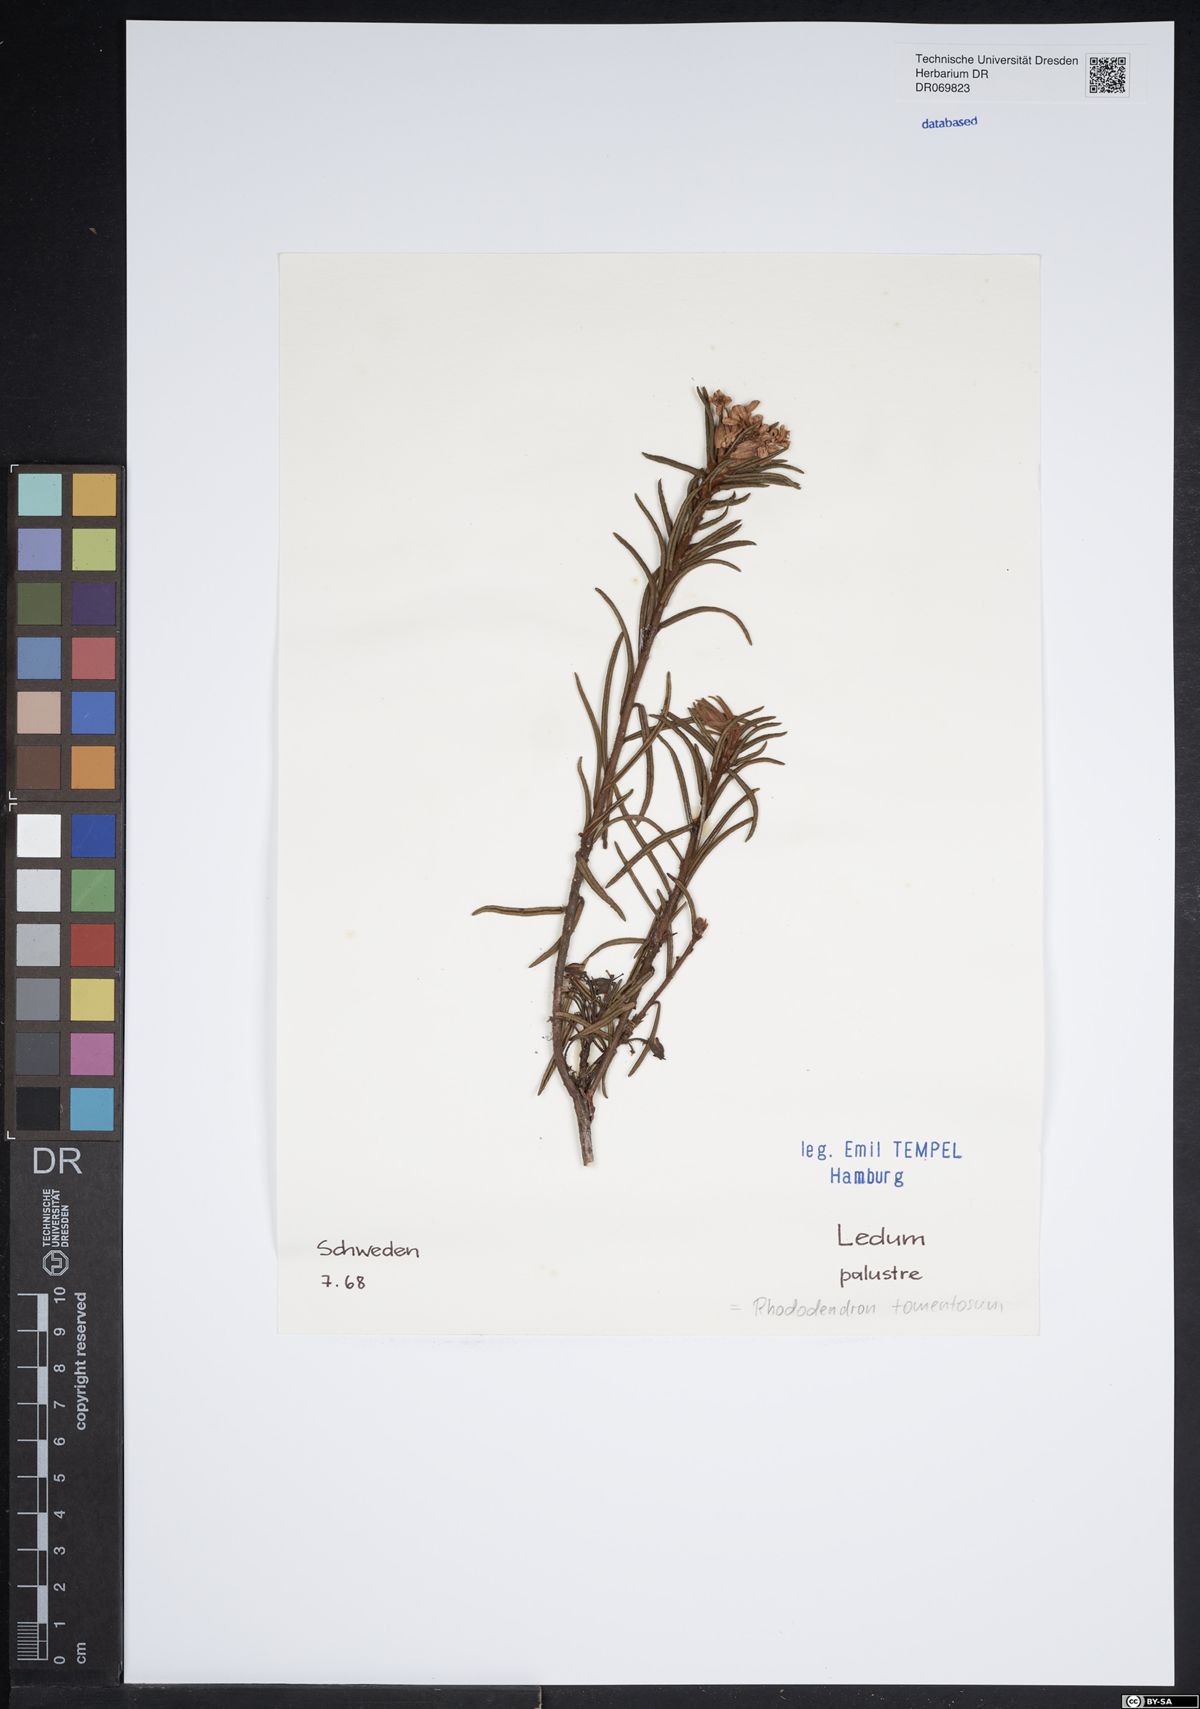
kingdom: Plantae
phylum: Tracheophyta
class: Magnoliopsida
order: Ericales
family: Ericaceae
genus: Rhododendron
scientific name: Rhododendron tomentosum
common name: Marsh labrador tea
